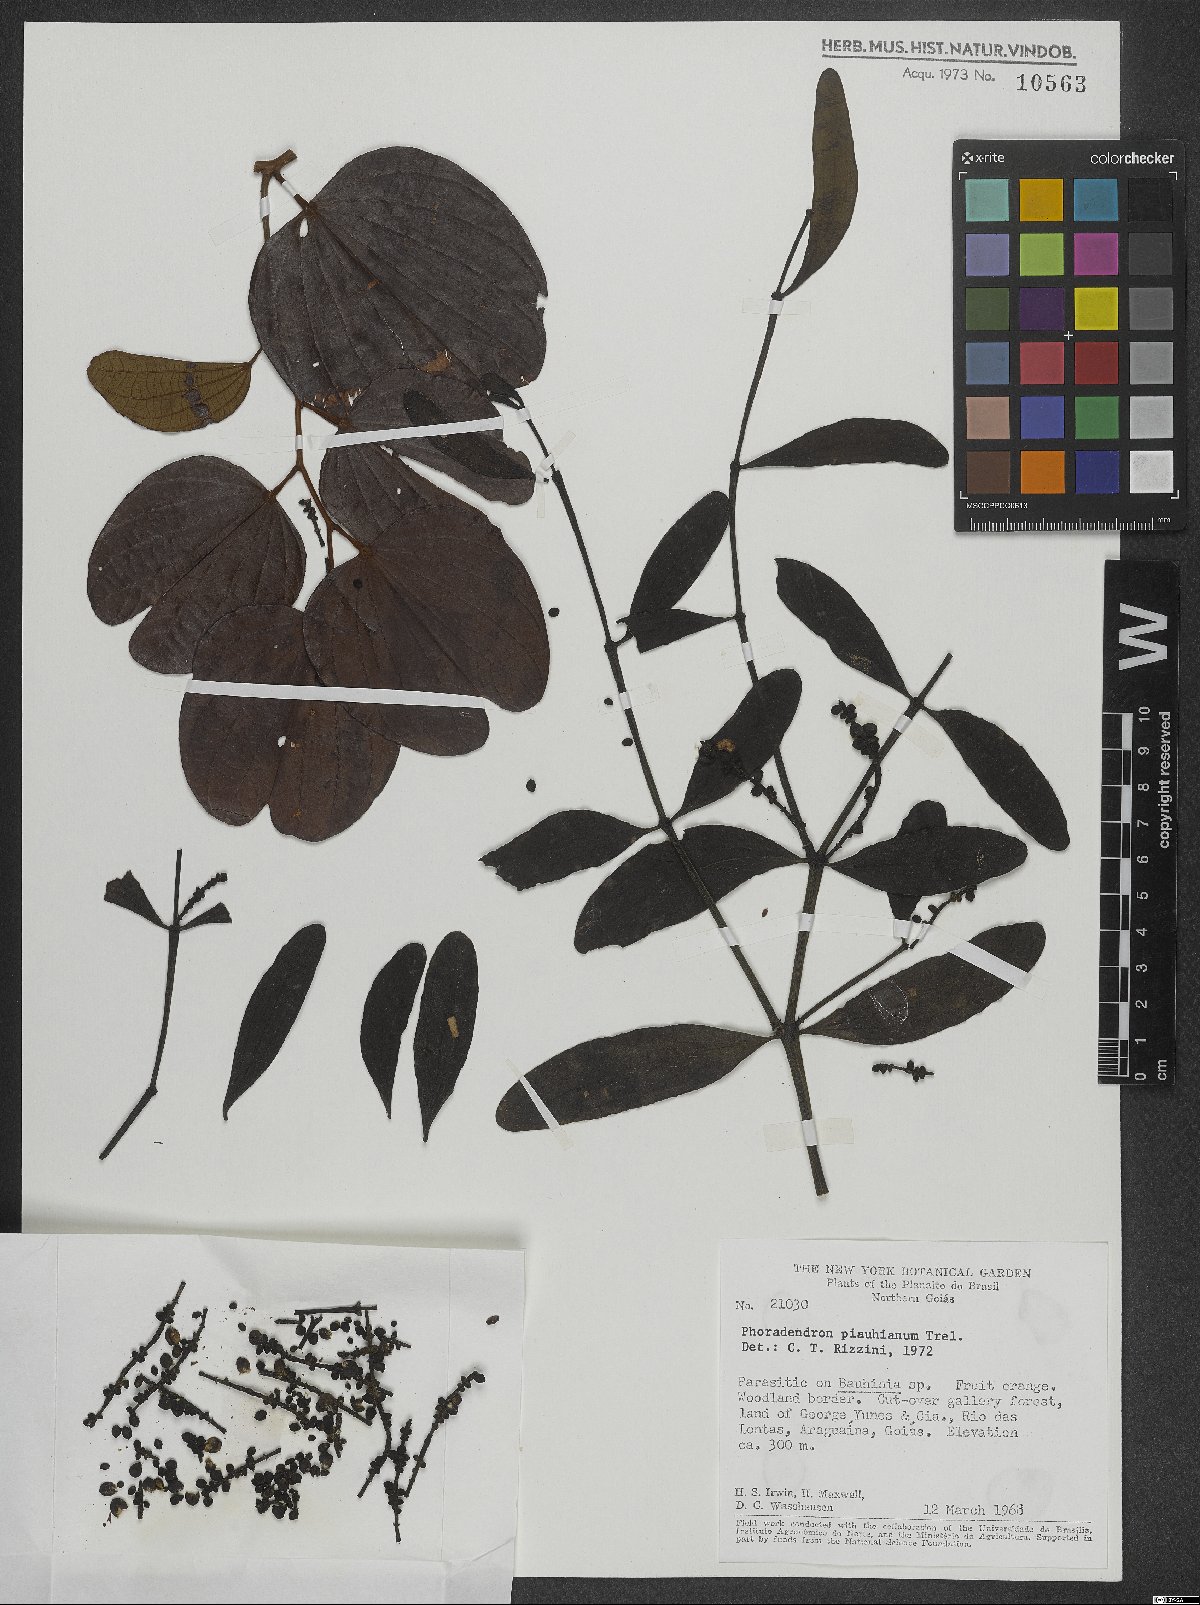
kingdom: Plantae
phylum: Tracheophyta
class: Magnoliopsida
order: Santalales
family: Viscaceae
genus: Phoradendron
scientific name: Phoradendron quadrangulare
